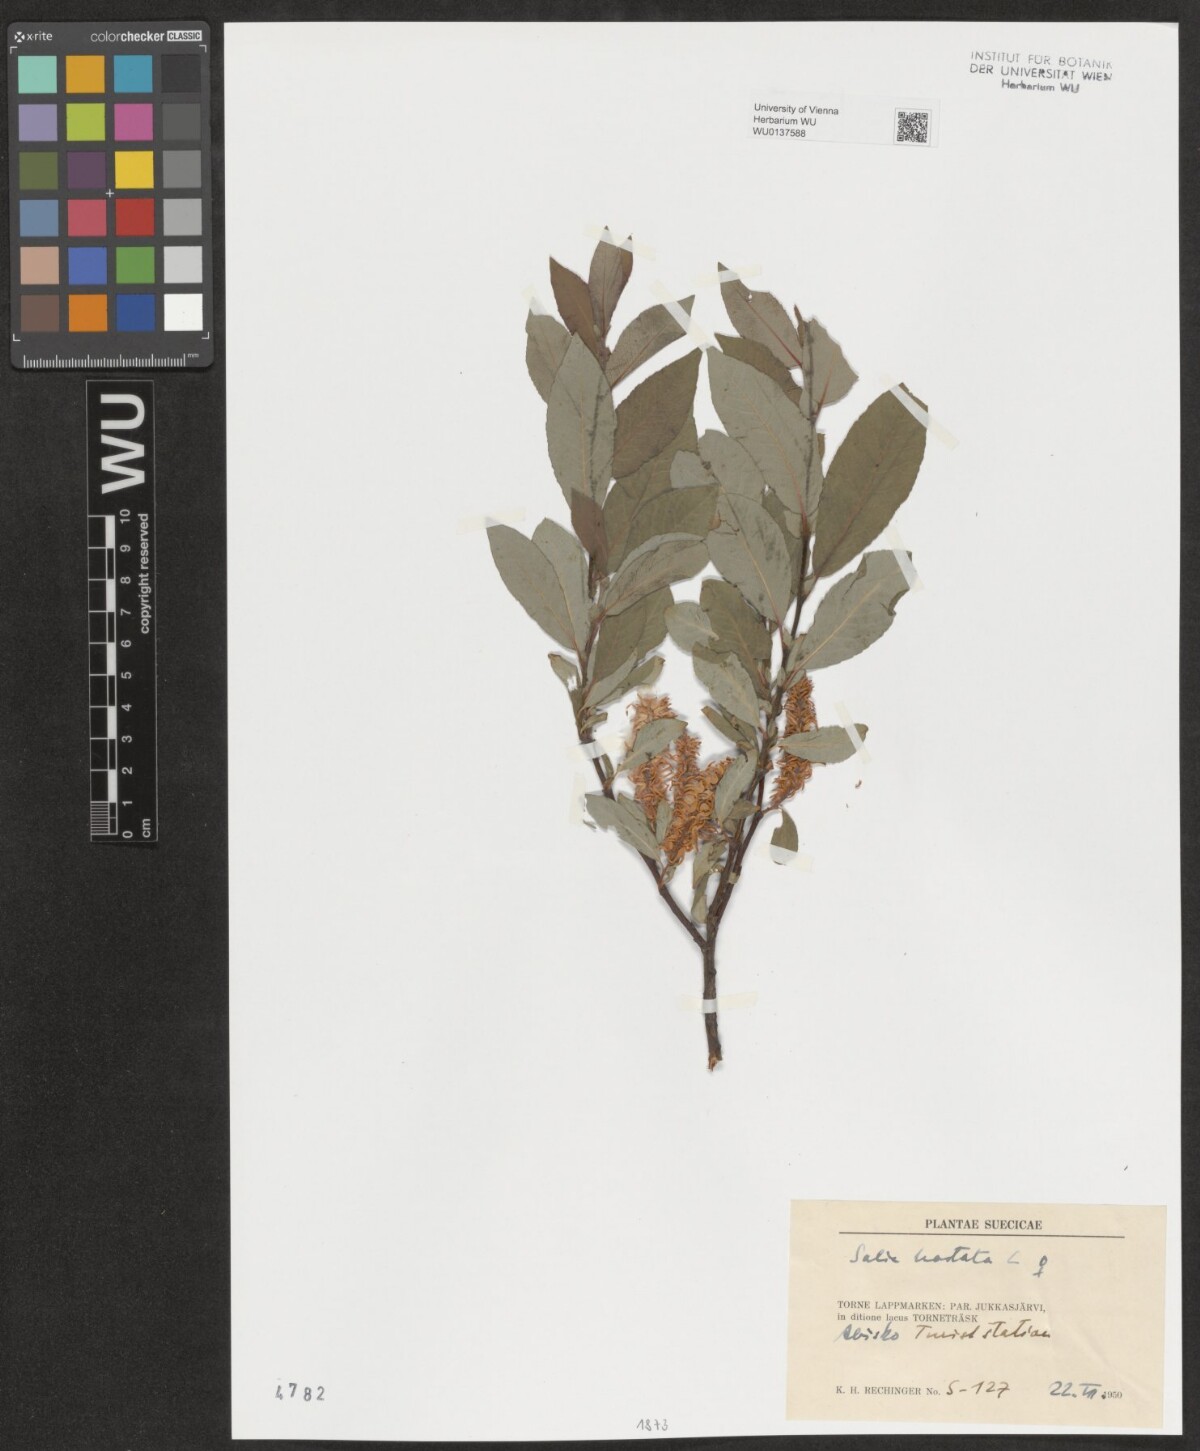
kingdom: Plantae
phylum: Tracheophyta
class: Magnoliopsida
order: Malpighiales
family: Salicaceae
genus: Salix
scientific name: Salix hastata
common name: Halberd willow
